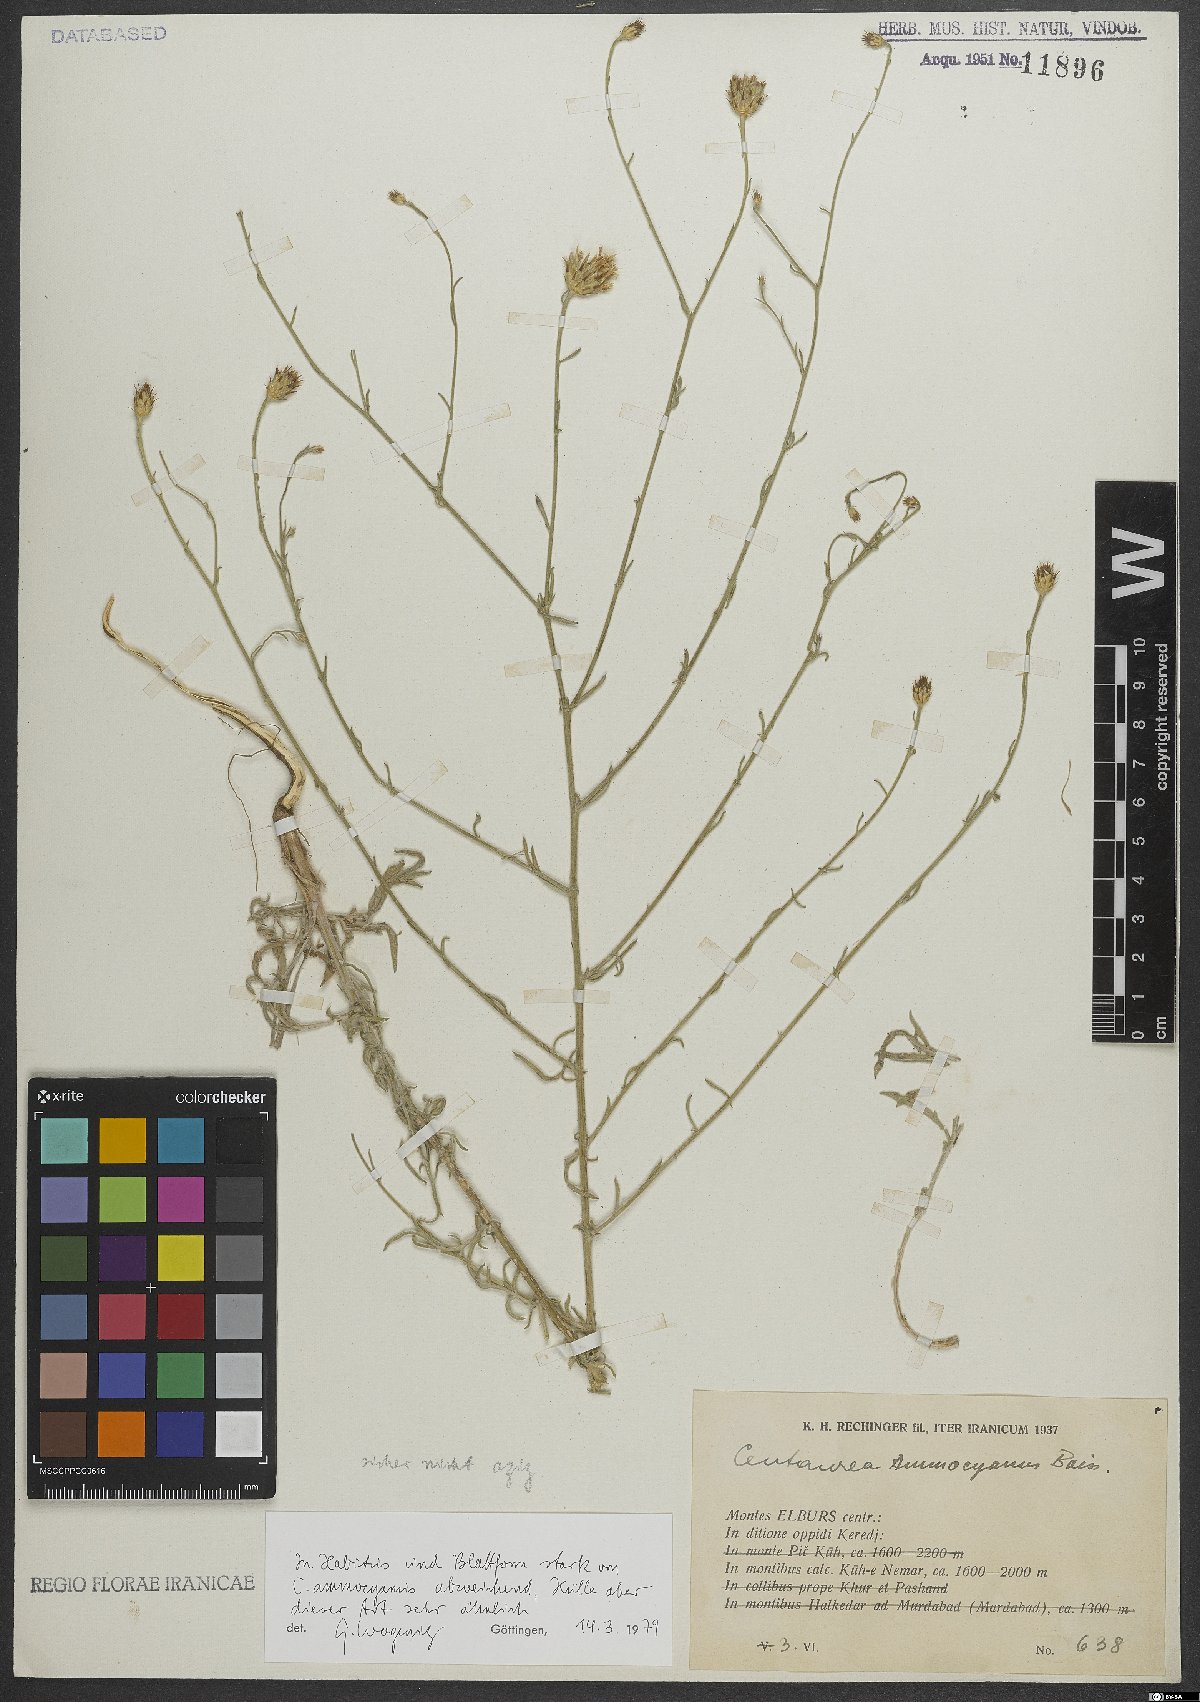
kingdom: Plantae
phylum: Tracheophyta
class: Magnoliopsida
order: Asterales
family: Asteraceae
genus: Centaurea
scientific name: Centaurea ammocyanus
